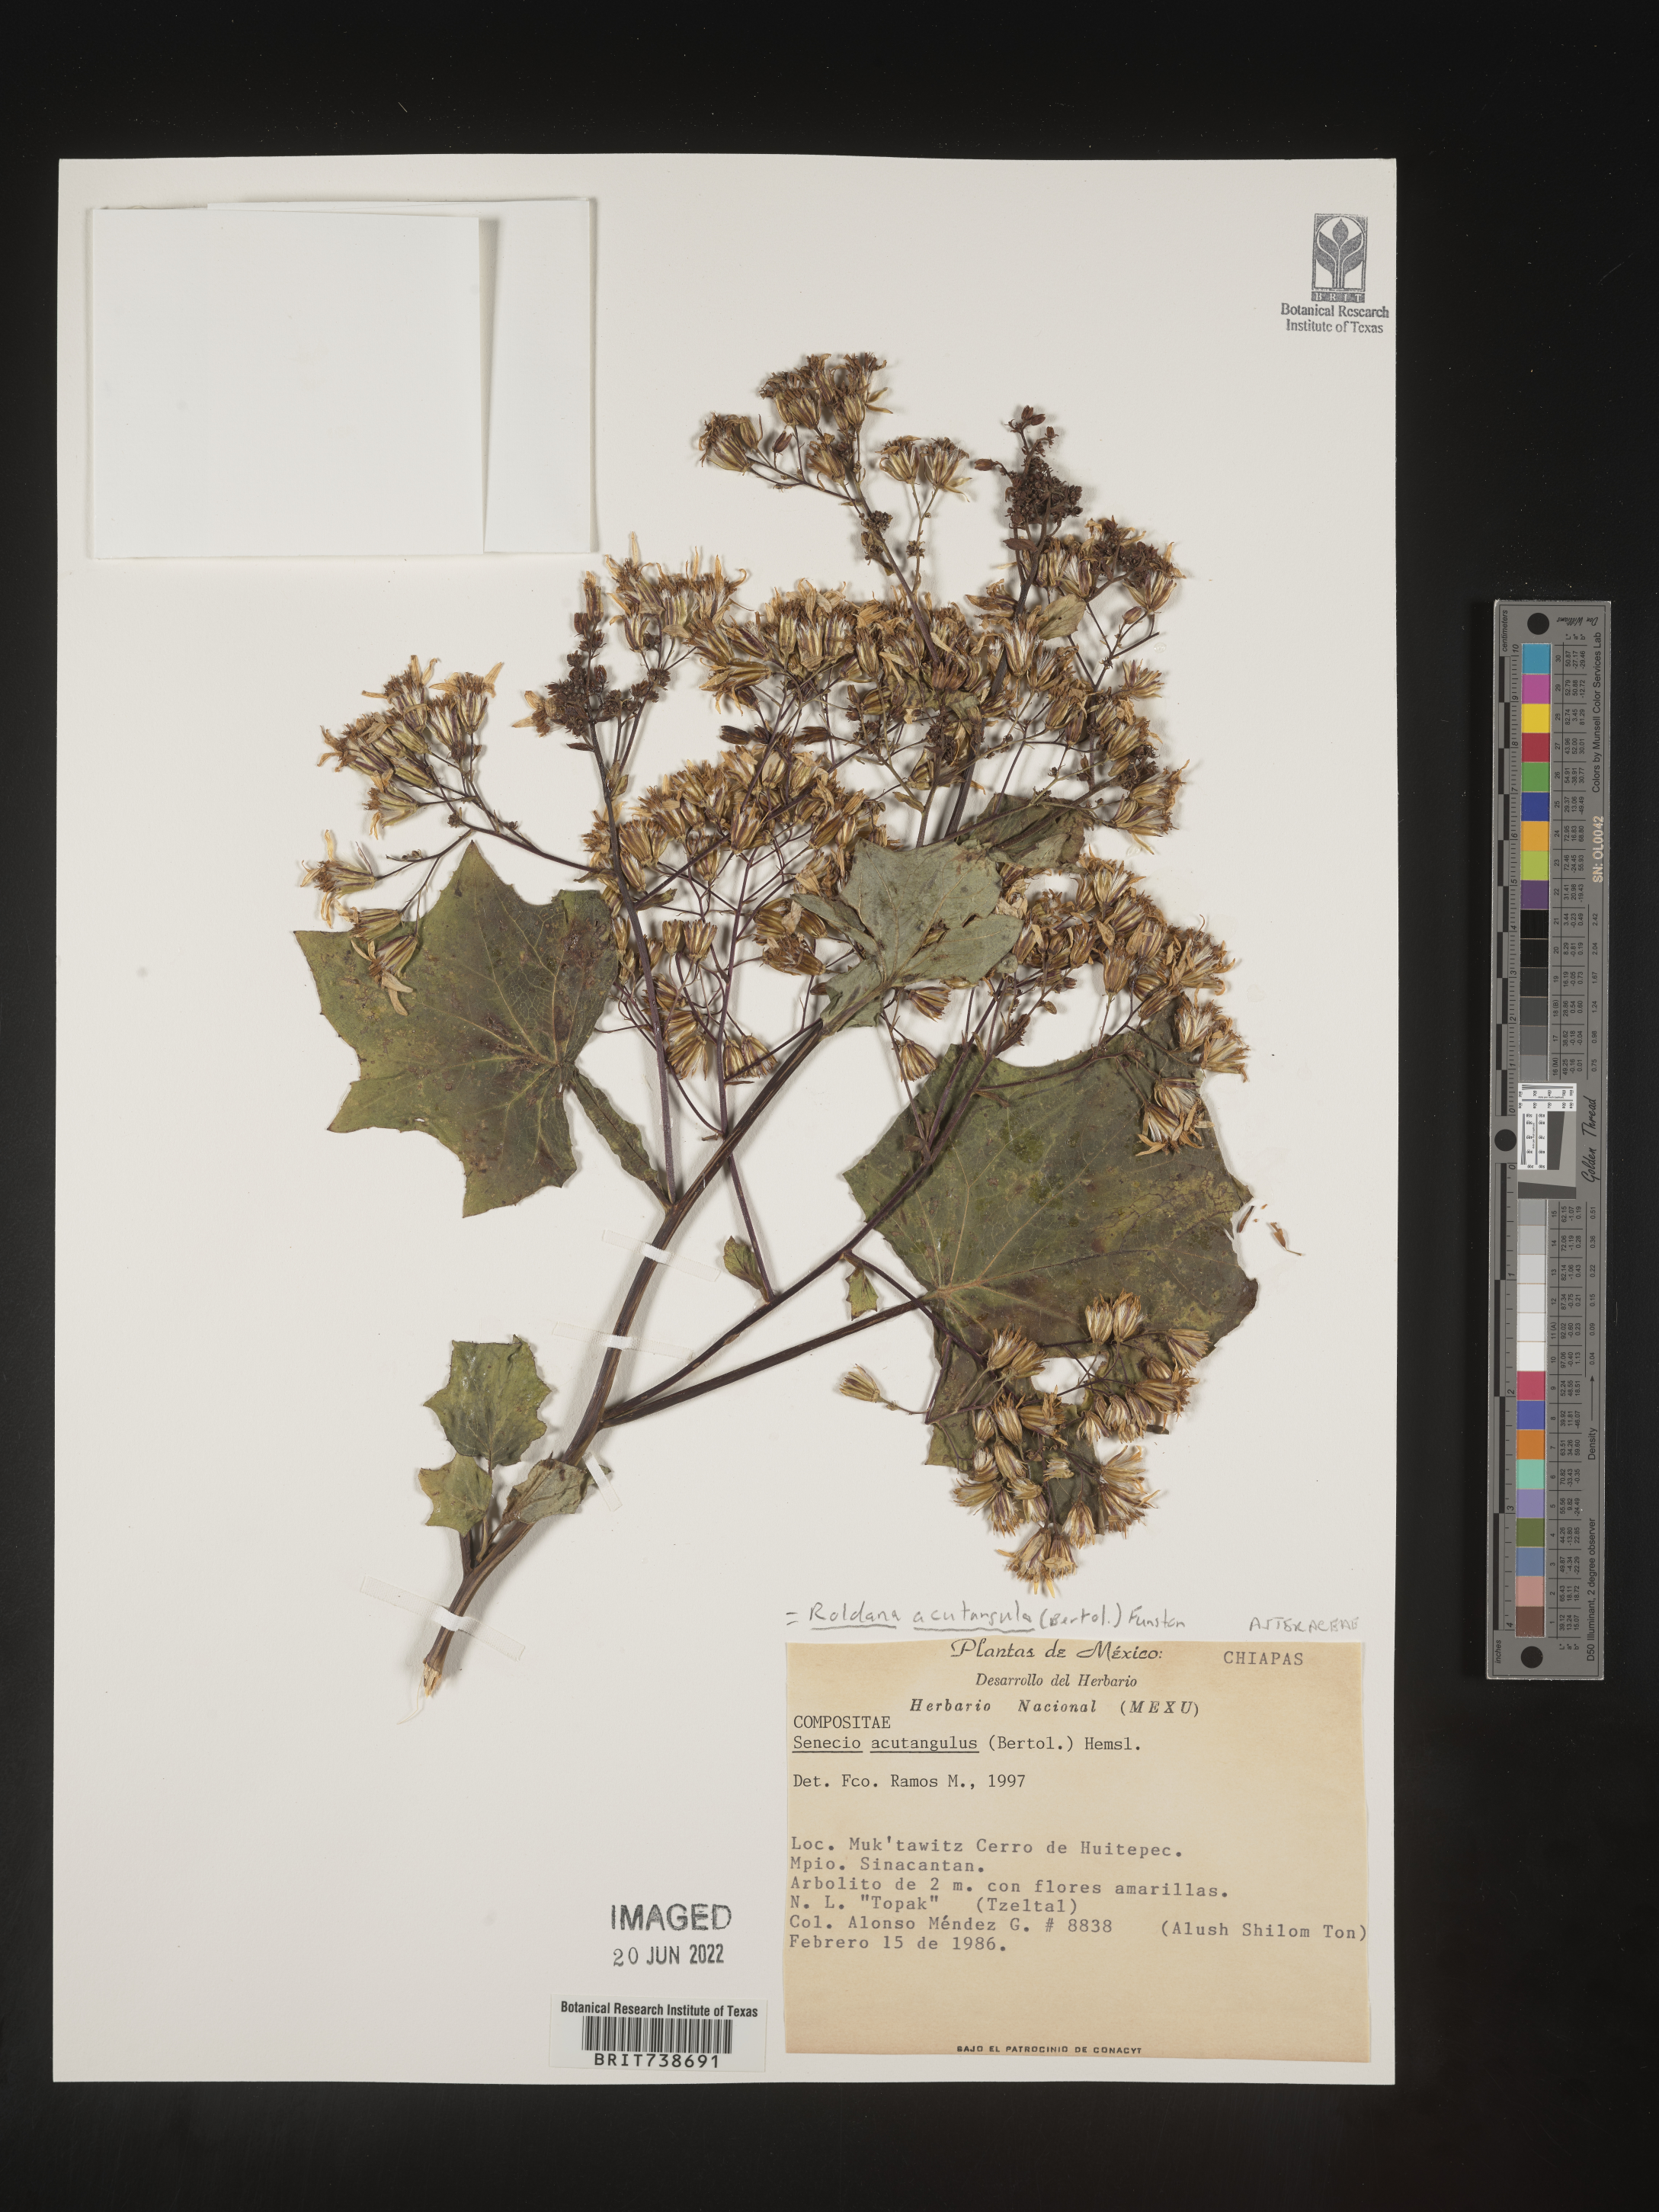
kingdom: Plantae
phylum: Tracheophyta
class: Magnoliopsida
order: Asterales
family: Asteraceae
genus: Roldana
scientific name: Roldana
